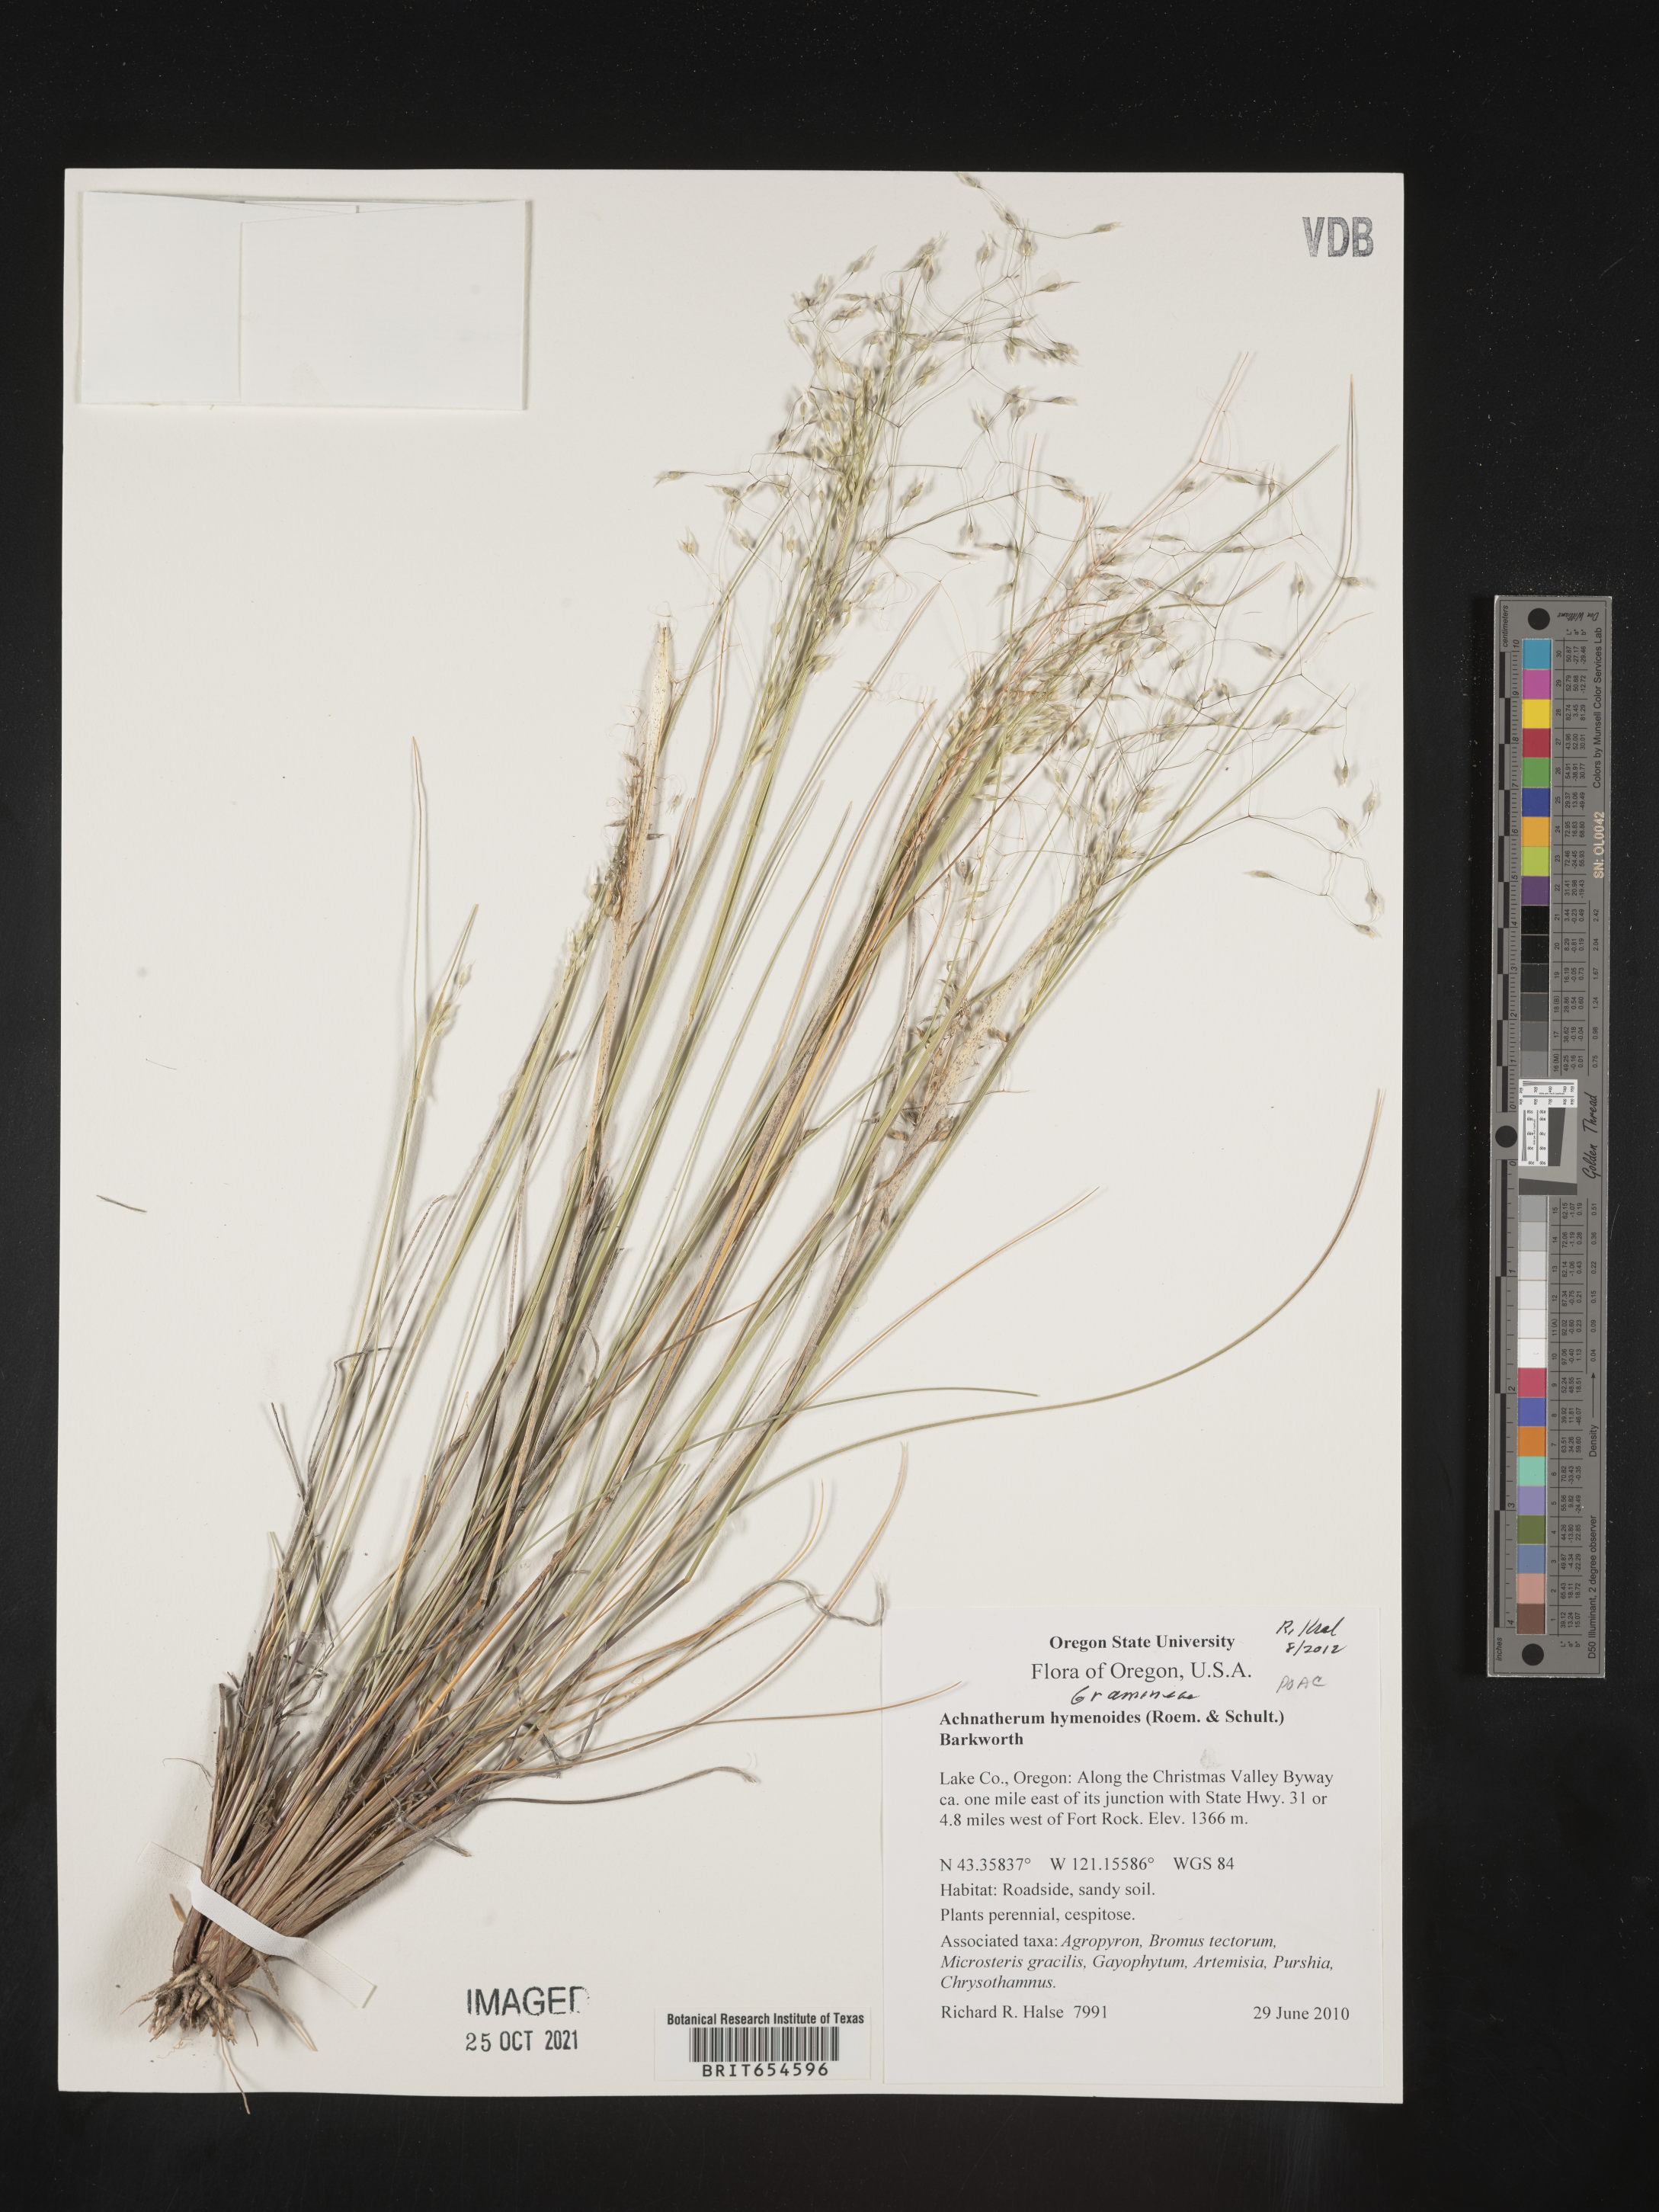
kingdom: Plantae
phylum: Tracheophyta
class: Liliopsida
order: Poales
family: Poaceae
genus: Achnatherum
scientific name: Achnatherum
